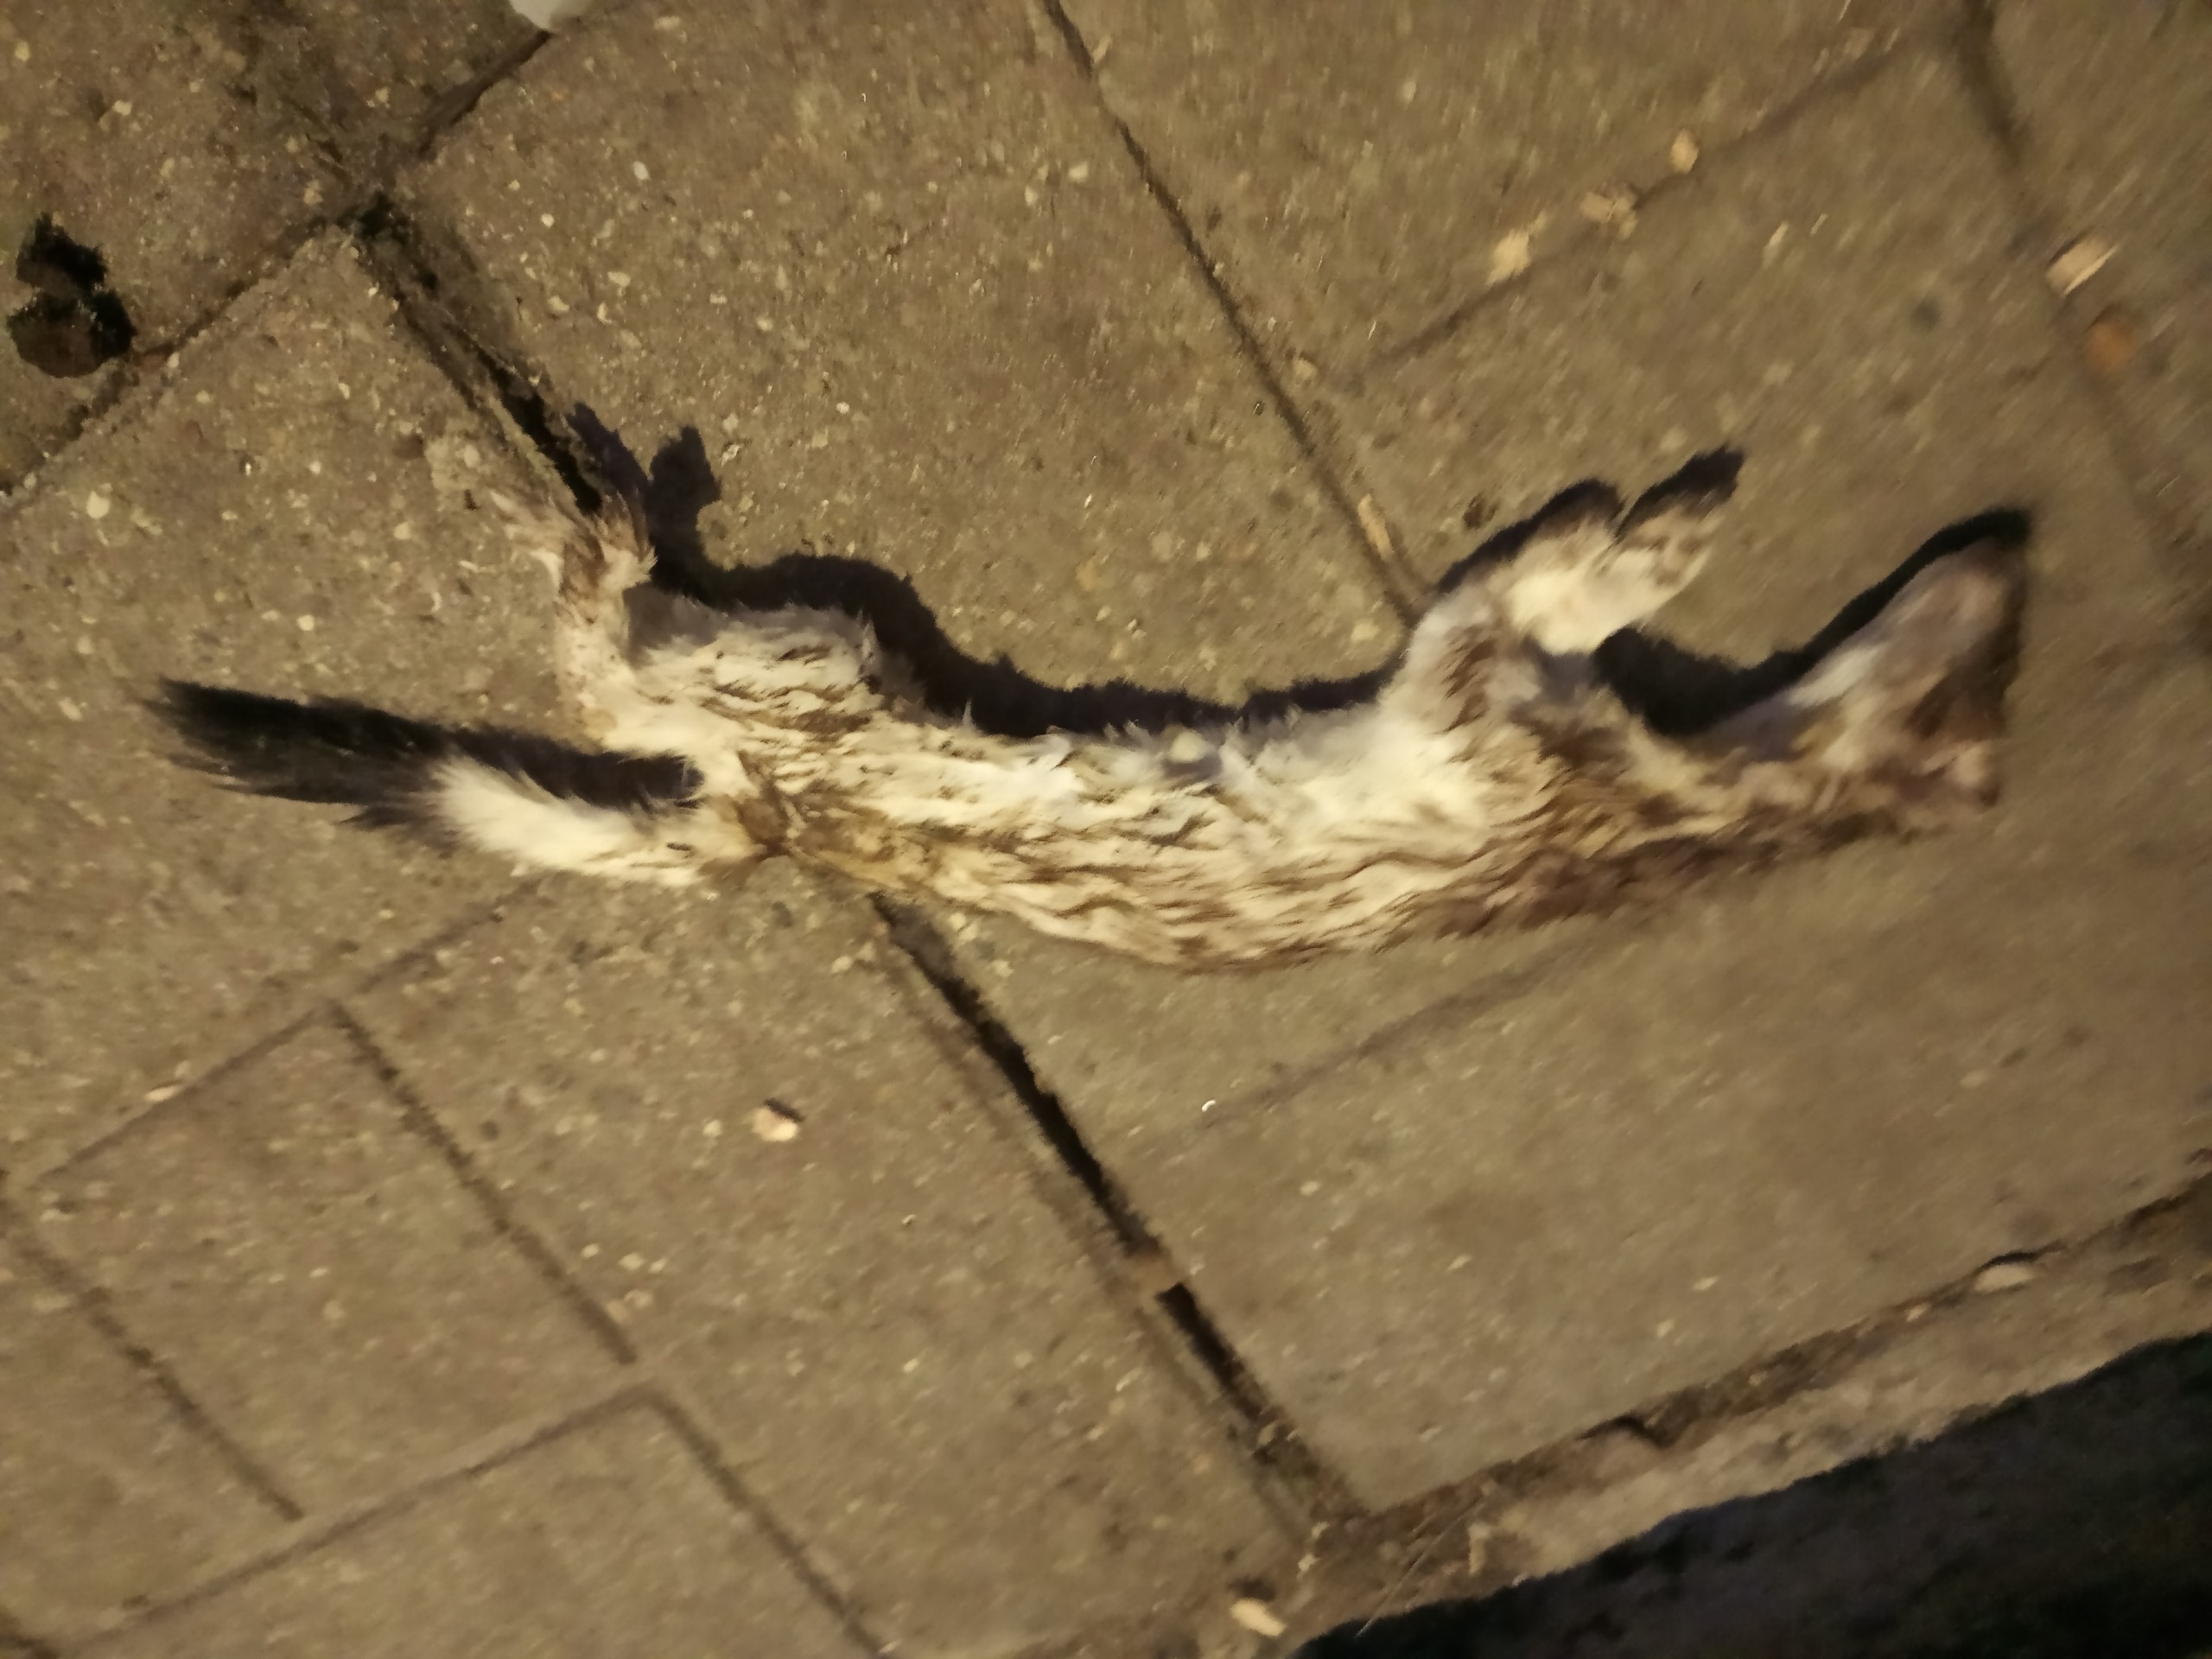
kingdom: Animalia
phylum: Chordata
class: Mammalia
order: Carnivora
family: Mustelidae
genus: Mustela
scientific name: Mustela erminea
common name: Lækat
